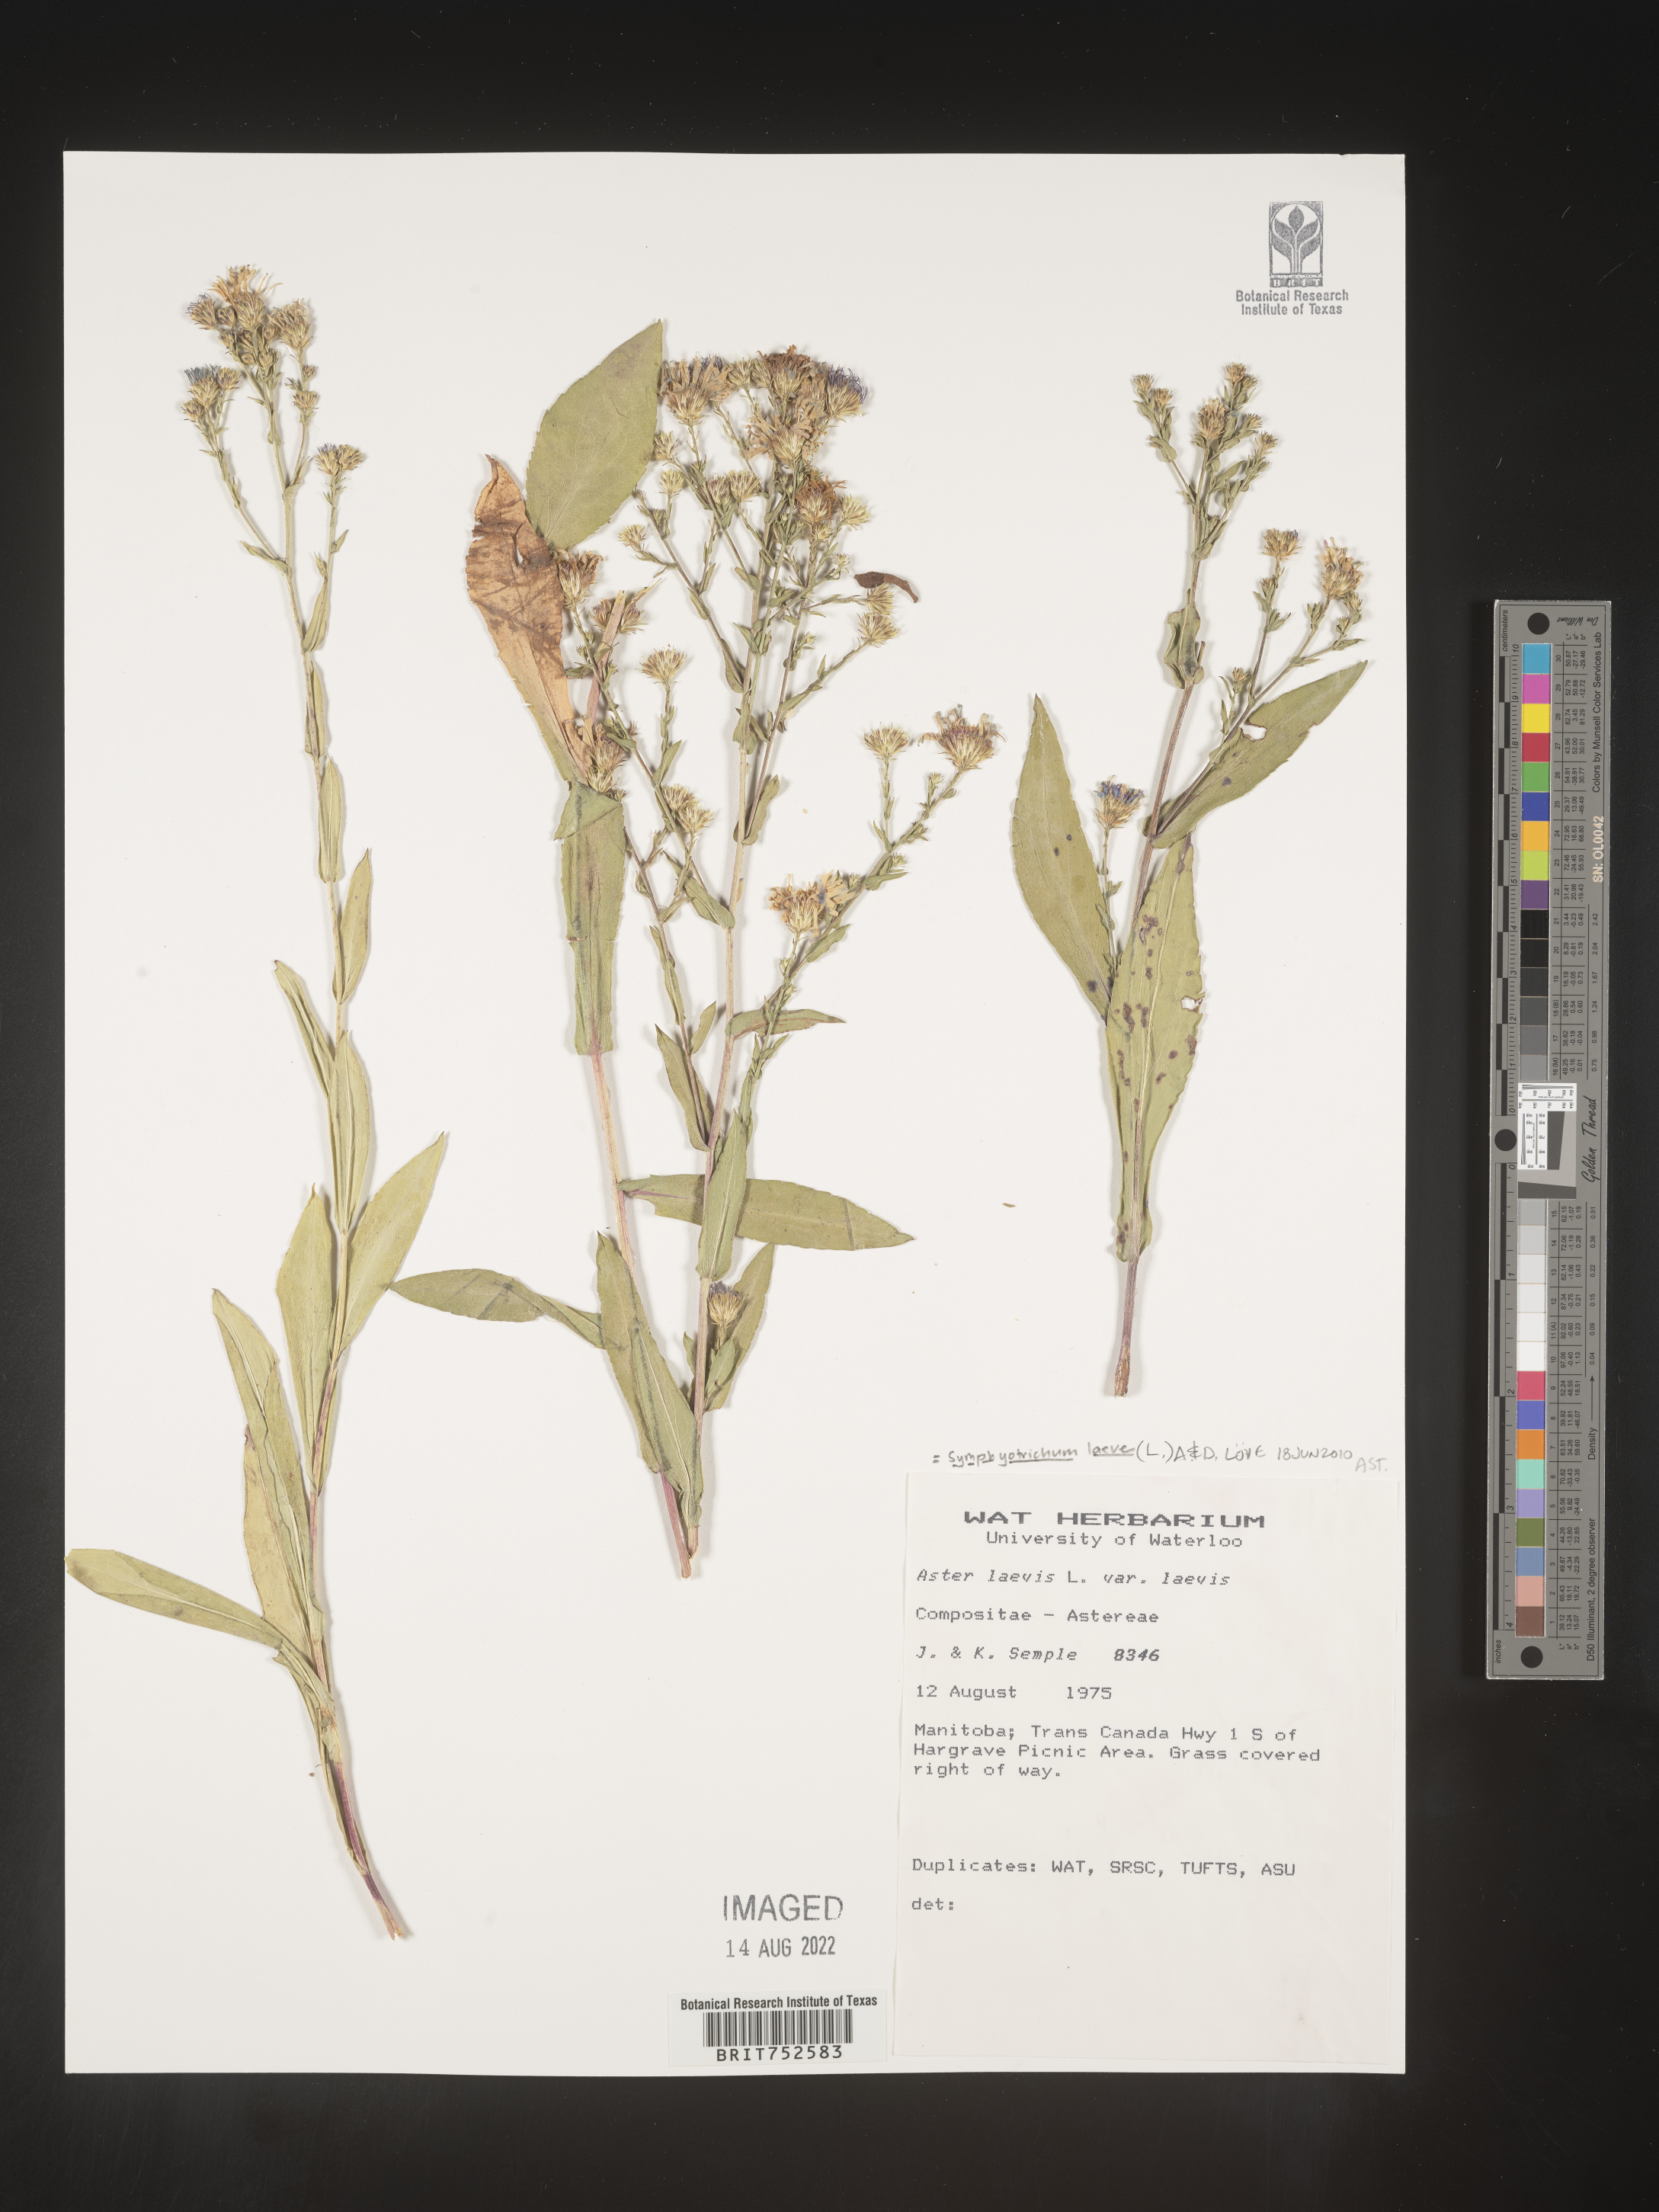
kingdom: Plantae
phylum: Tracheophyta
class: Magnoliopsida
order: Asterales
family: Asteraceae
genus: Symphyotrichum
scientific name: Symphyotrichum laeve
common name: Glaucous aster
